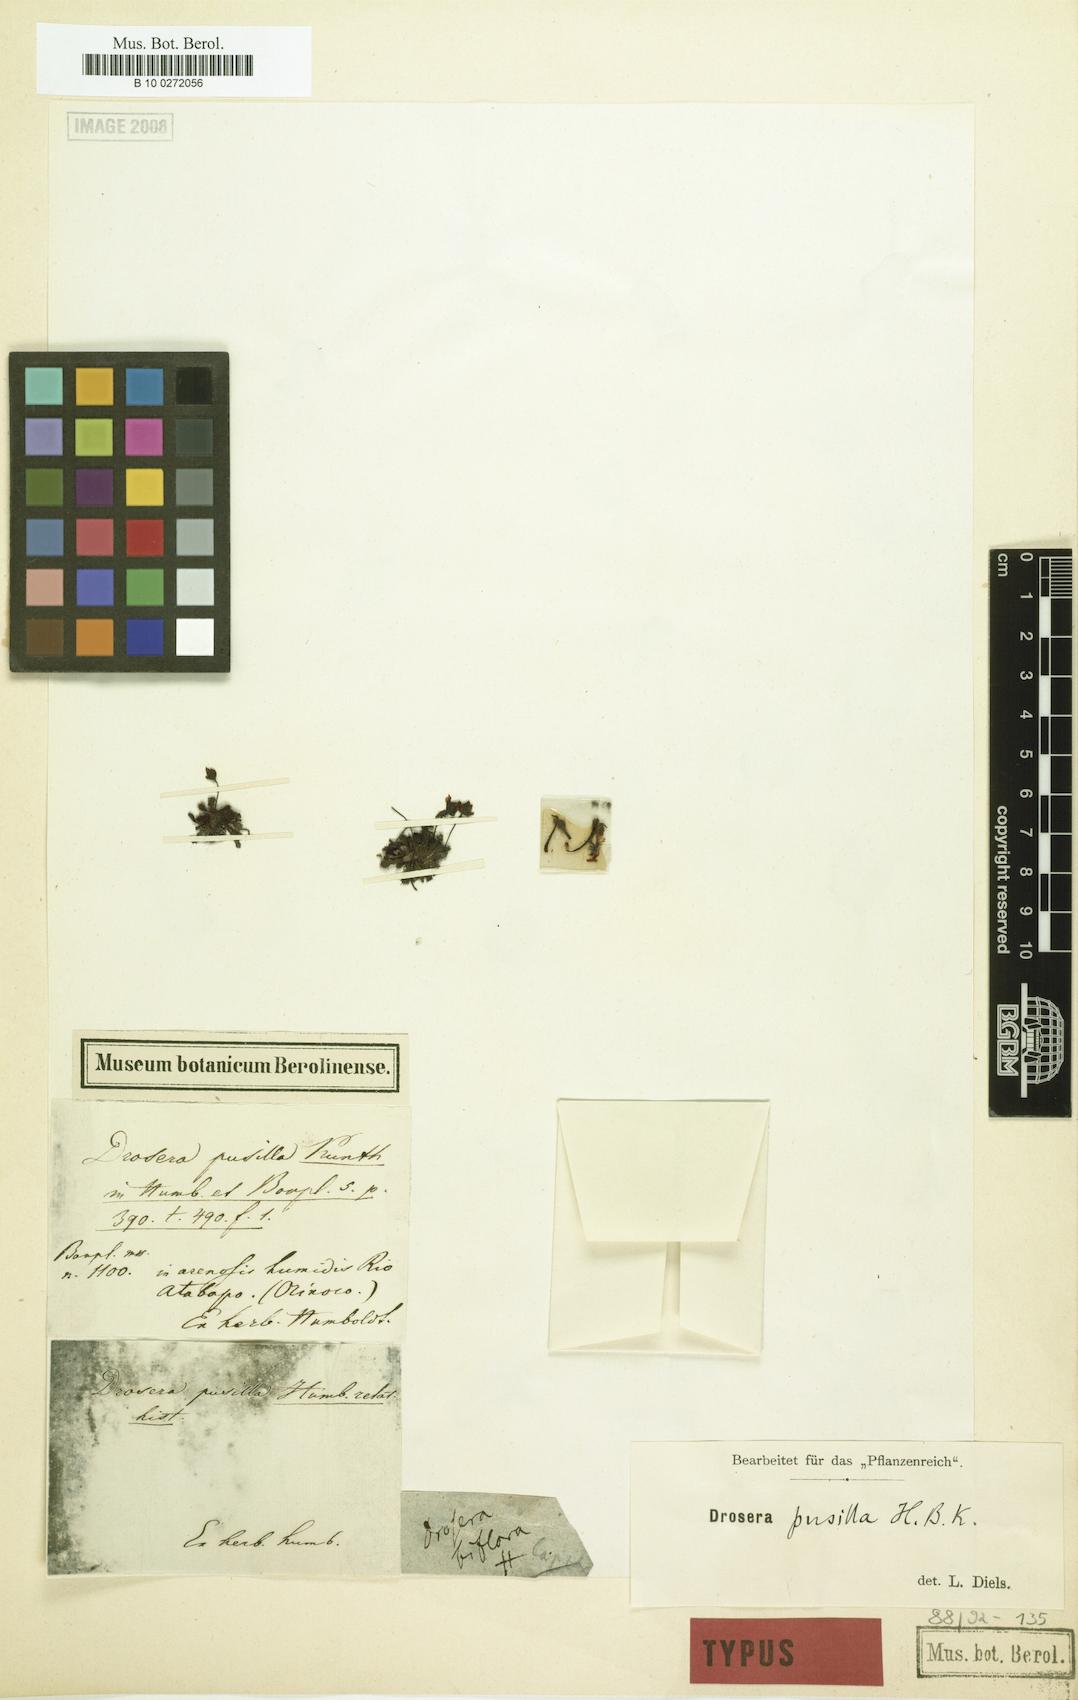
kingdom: Plantae
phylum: Tracheophyta
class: Magnoliopsida
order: Caryophyllales
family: Droseraceae
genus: Drosera
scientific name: Drosera biflora
